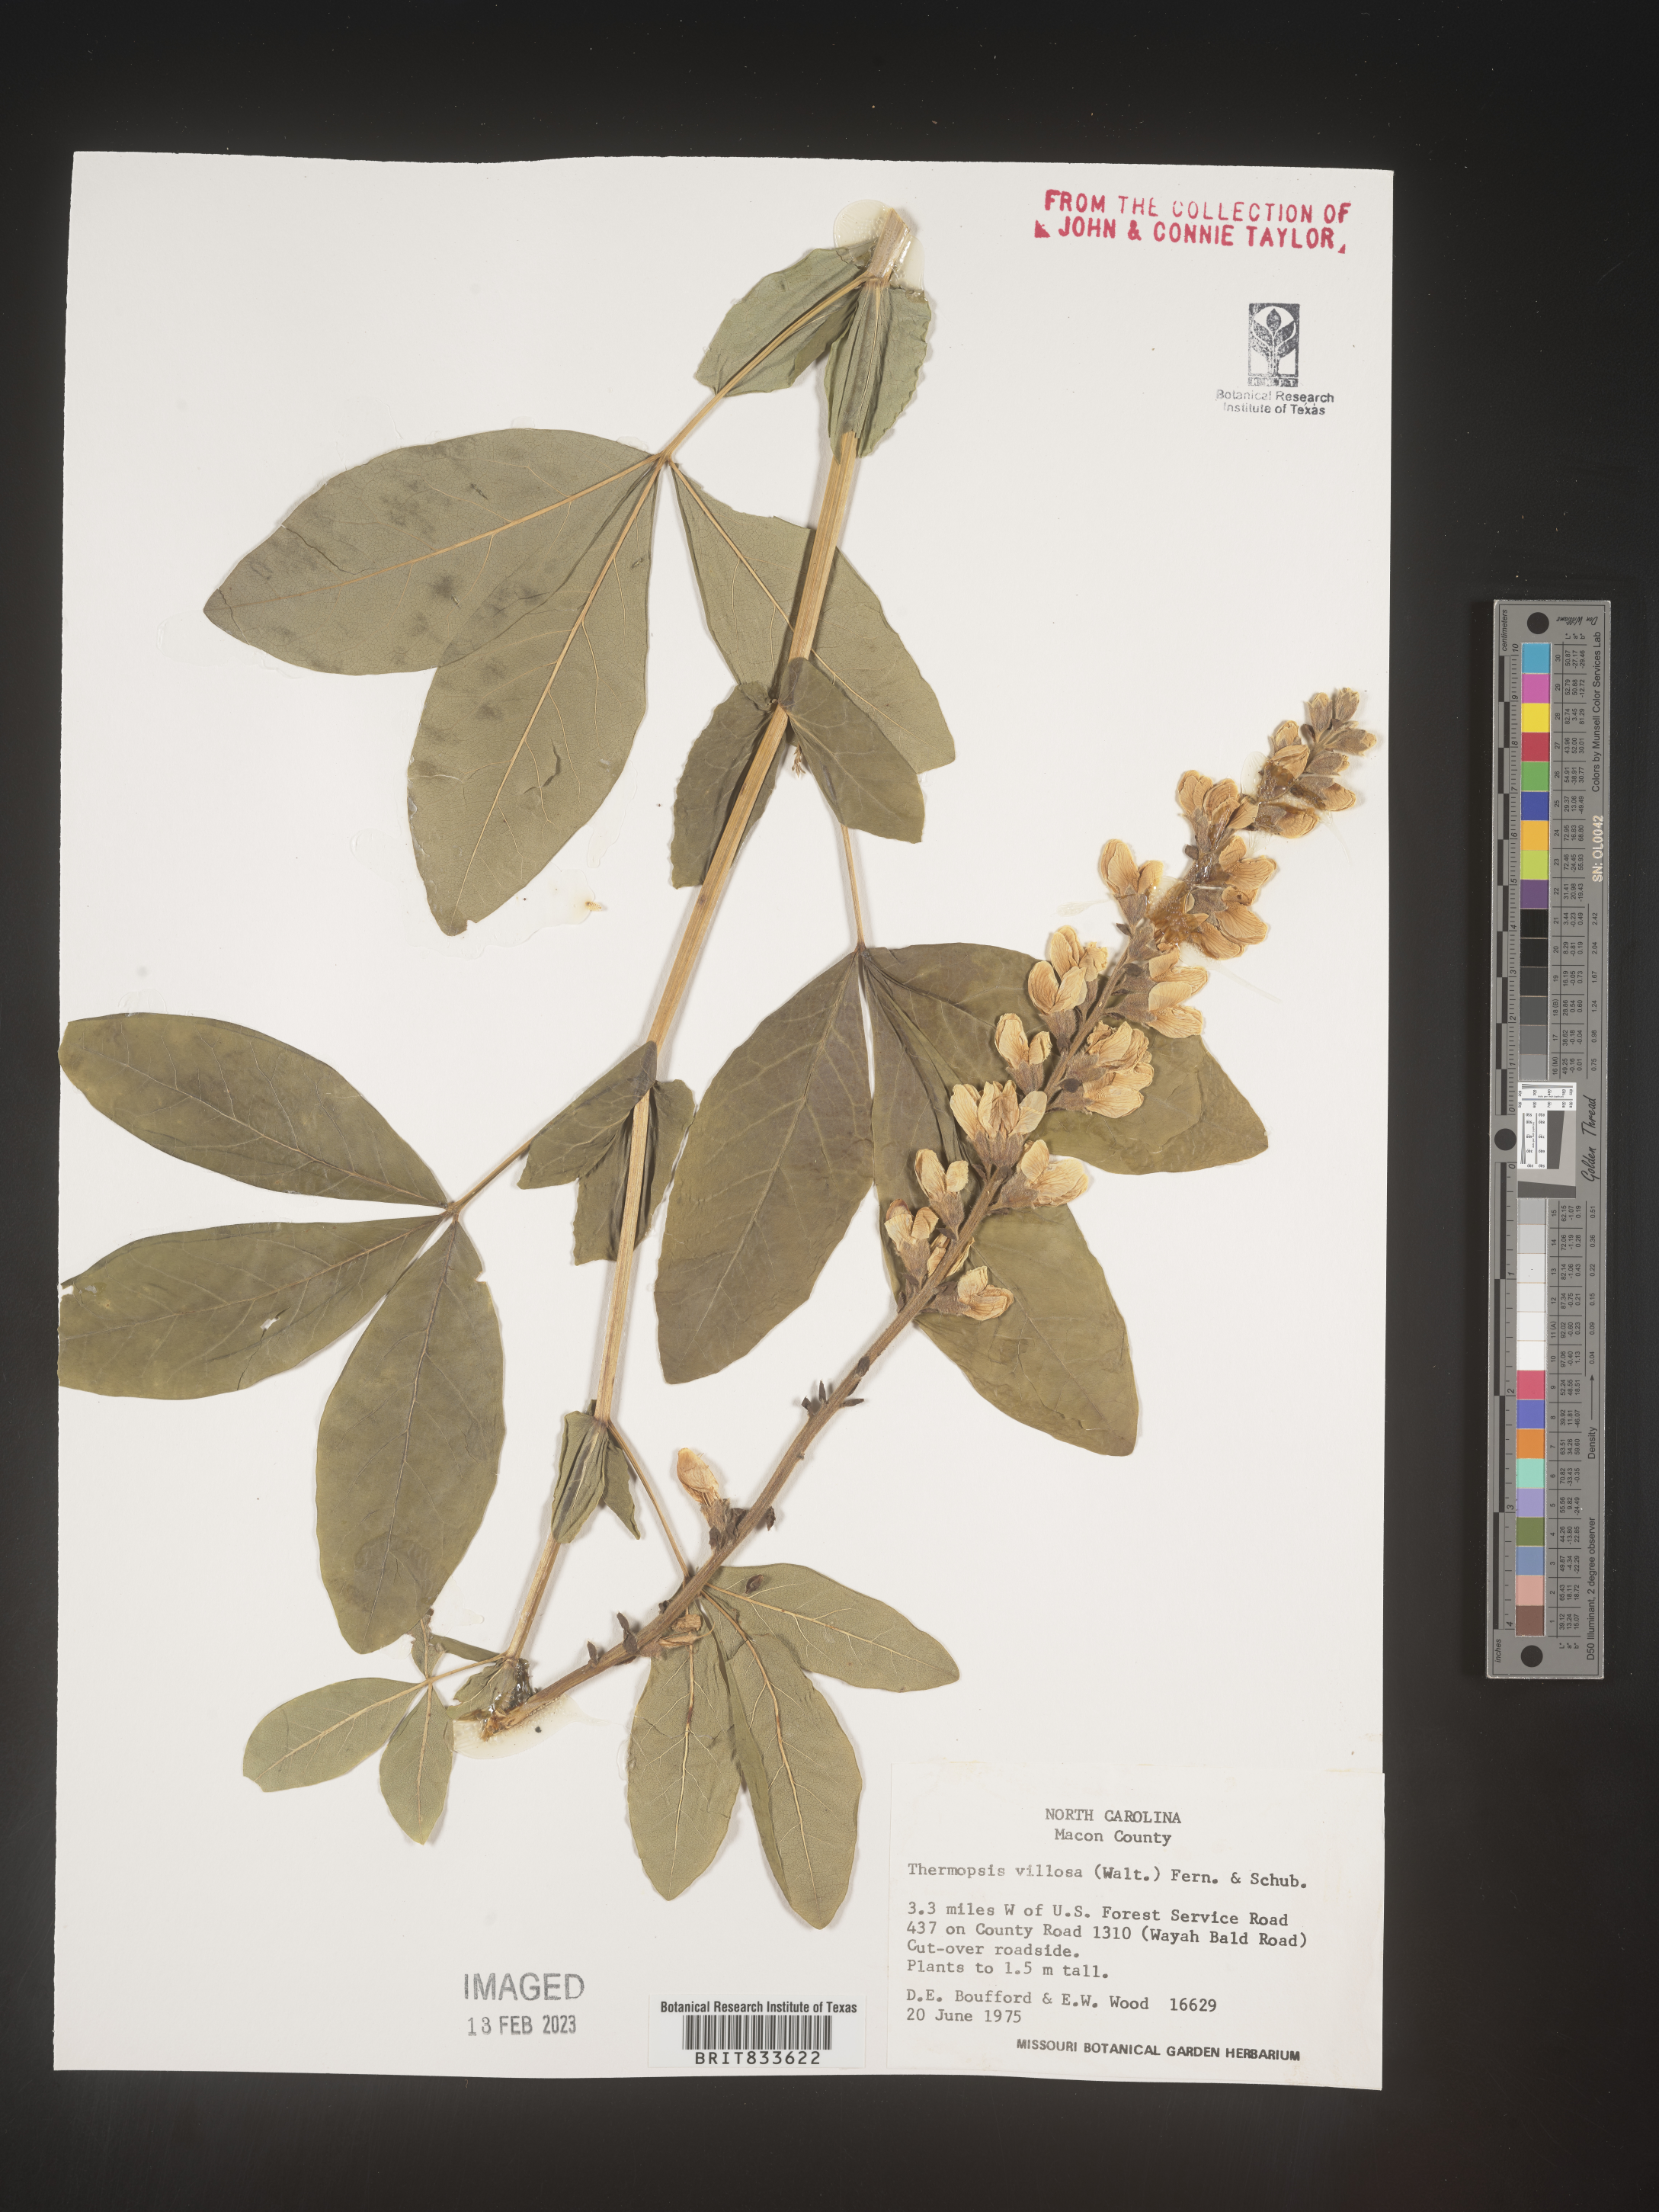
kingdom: Plantae
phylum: Tracheophyta
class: Magnoliopsida
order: Fabales
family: Fabaceae
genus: Thermopsis
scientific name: Thermopsis villosa
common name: Carolina-lupin
